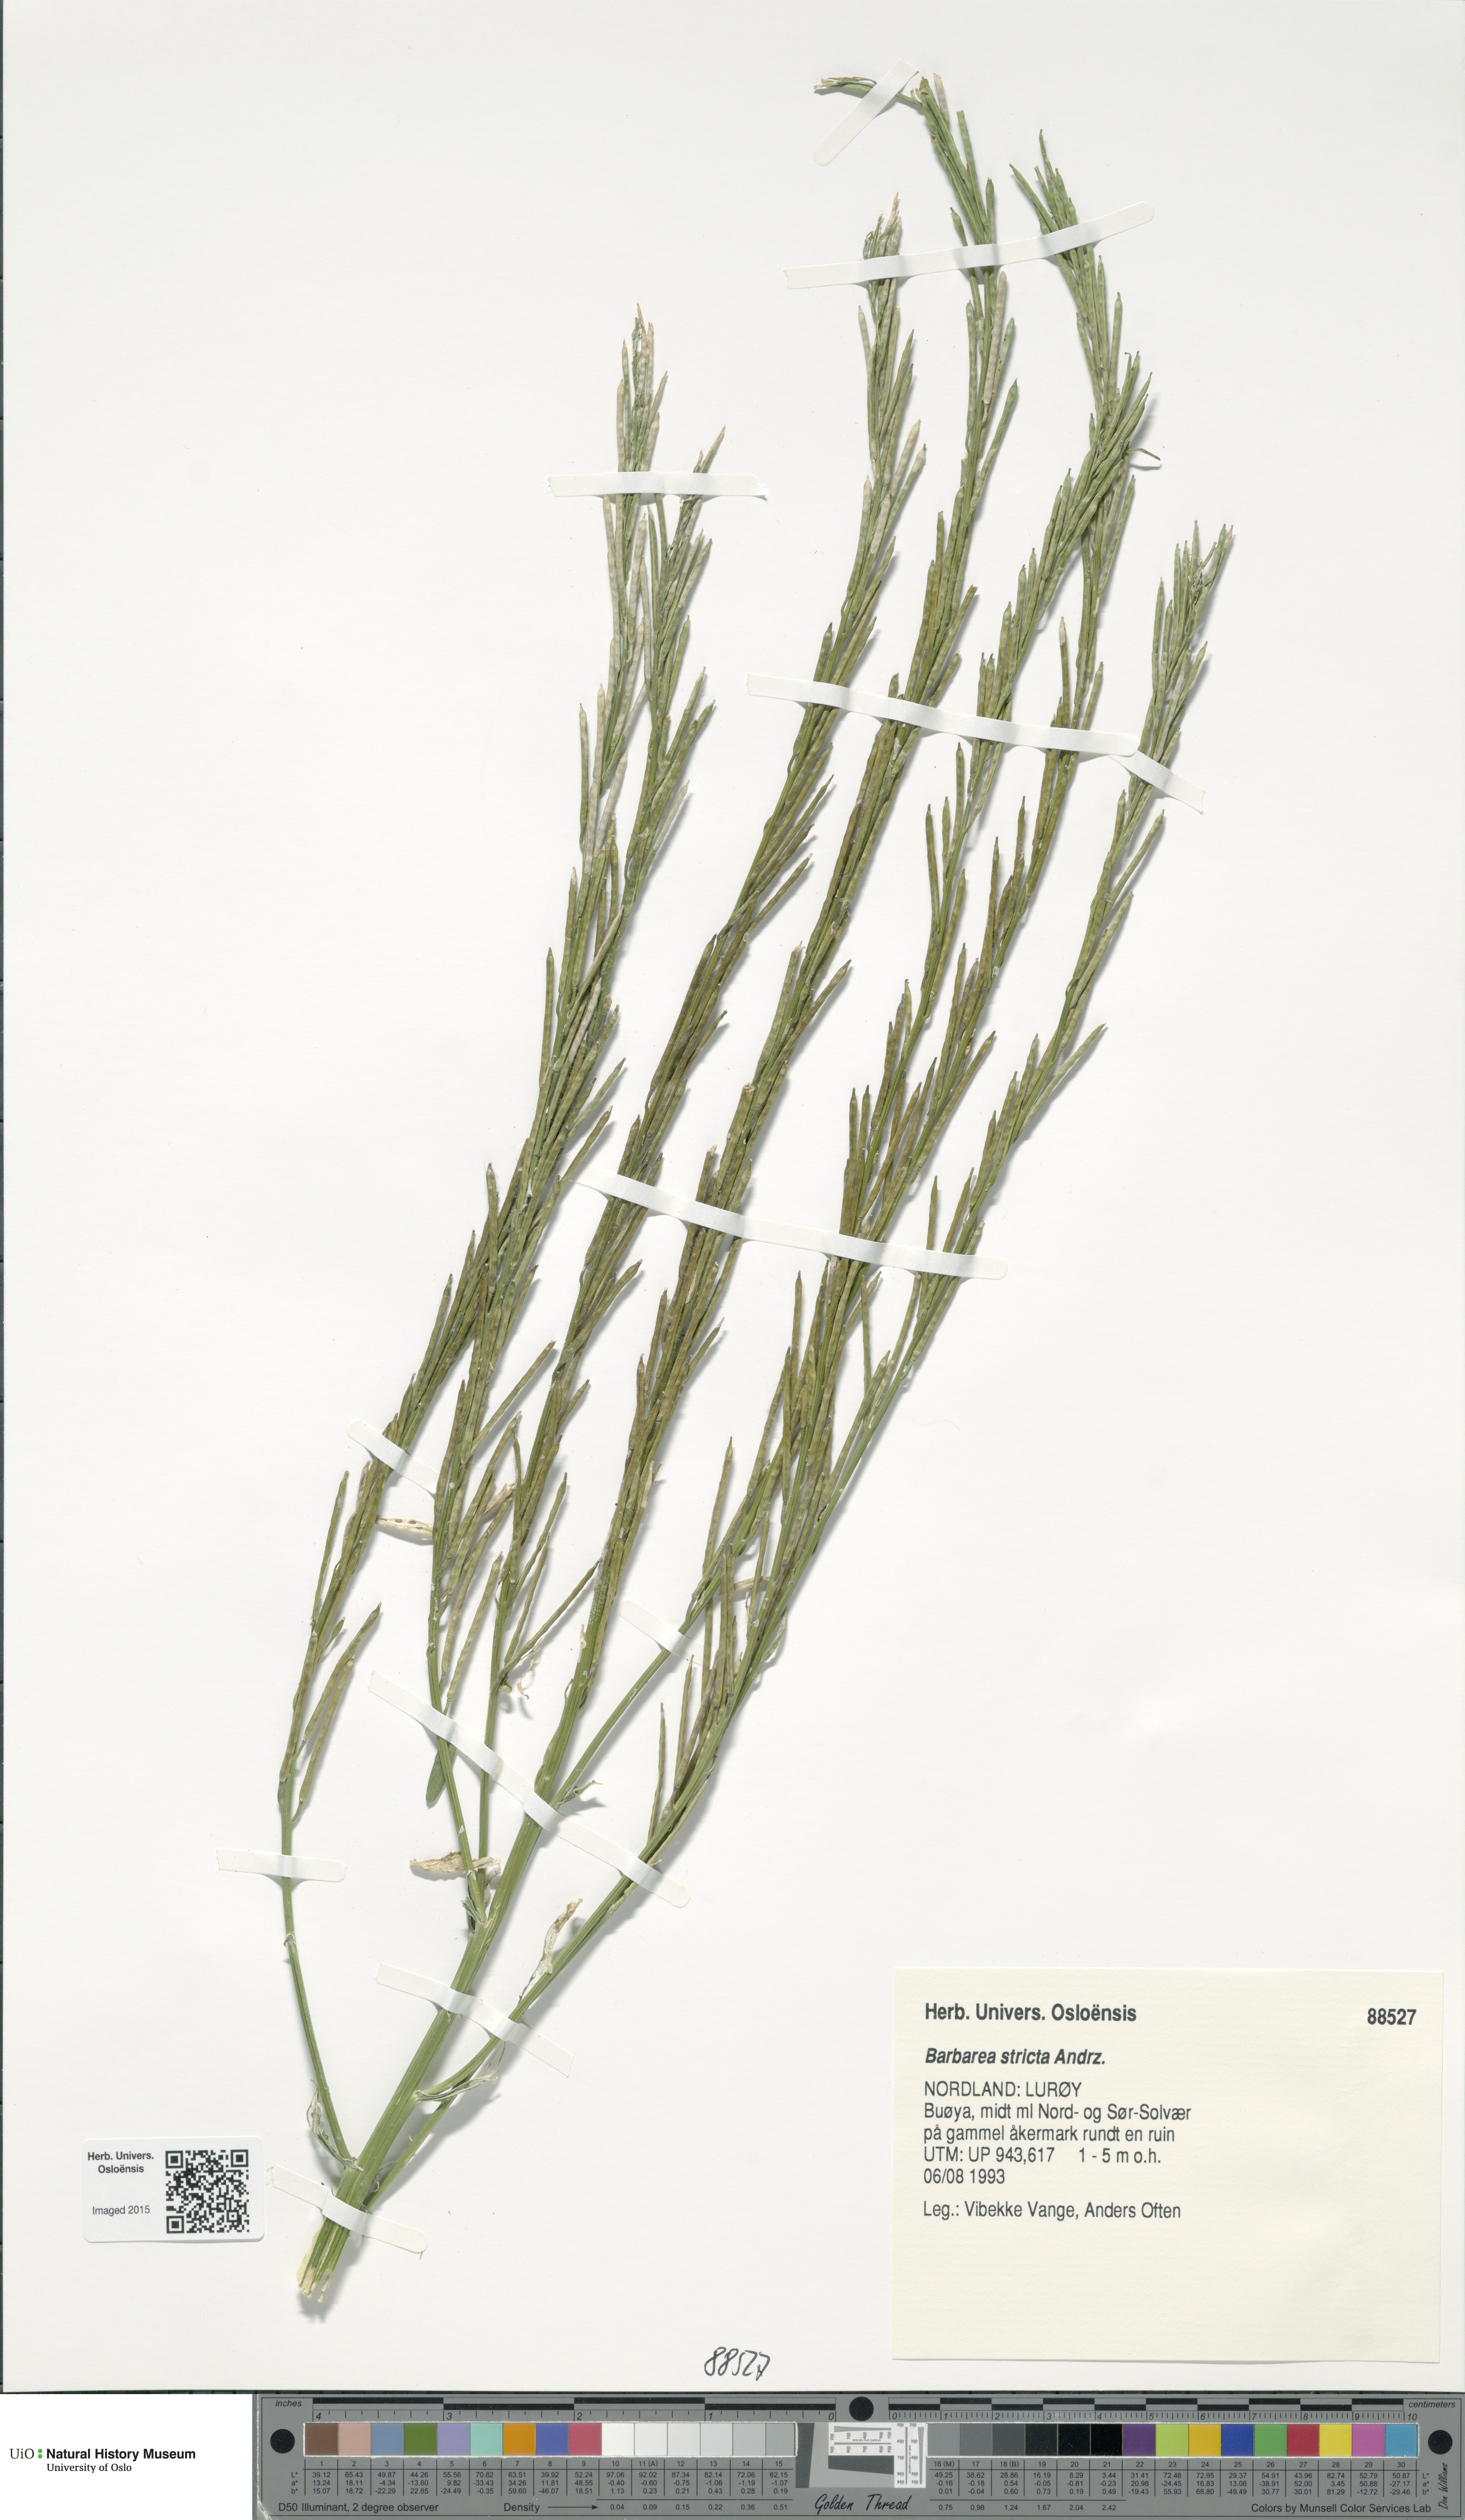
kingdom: Plantae
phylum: Tracheophyta
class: Magnoliopsida
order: Brassicales
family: Brassicaceae
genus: Barbarea
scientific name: Barbarea stricta
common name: Small-flowered winter-cress
